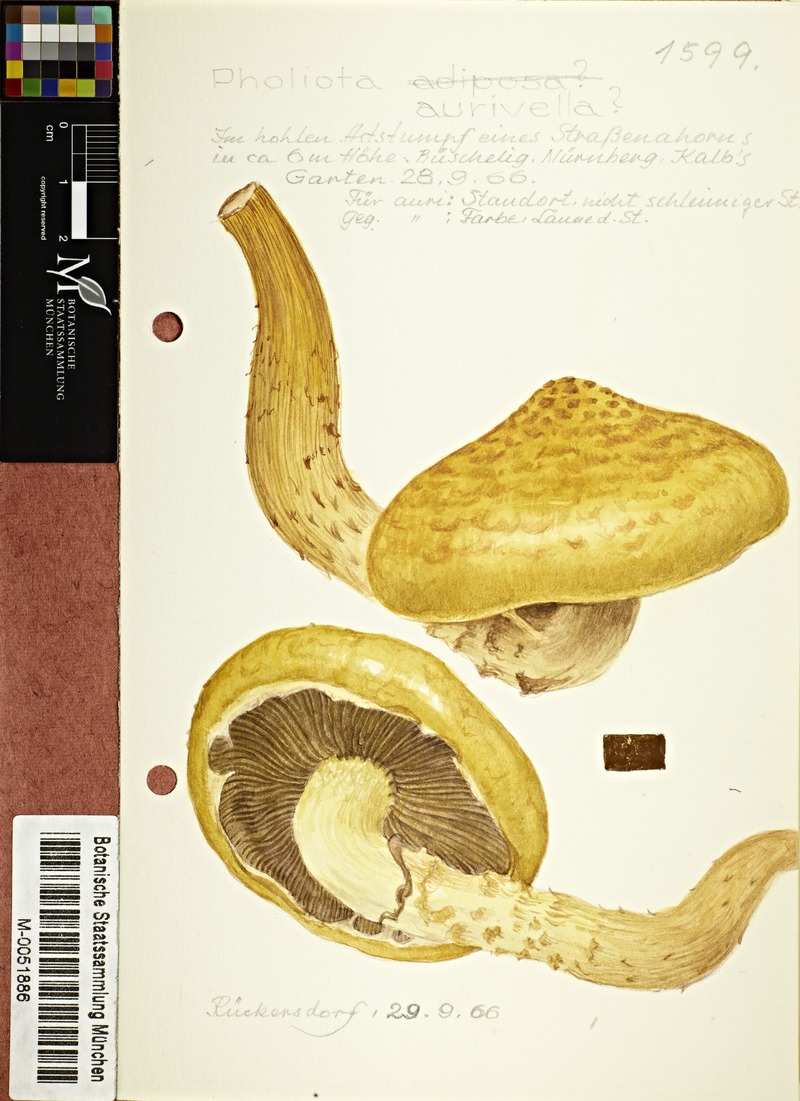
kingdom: Fungi
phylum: Basidiomycota
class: Agaricomycetes
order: Agaricales
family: Strophariaceae
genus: Pholiota
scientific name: Pholiota aurivella
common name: Golden scalycap
